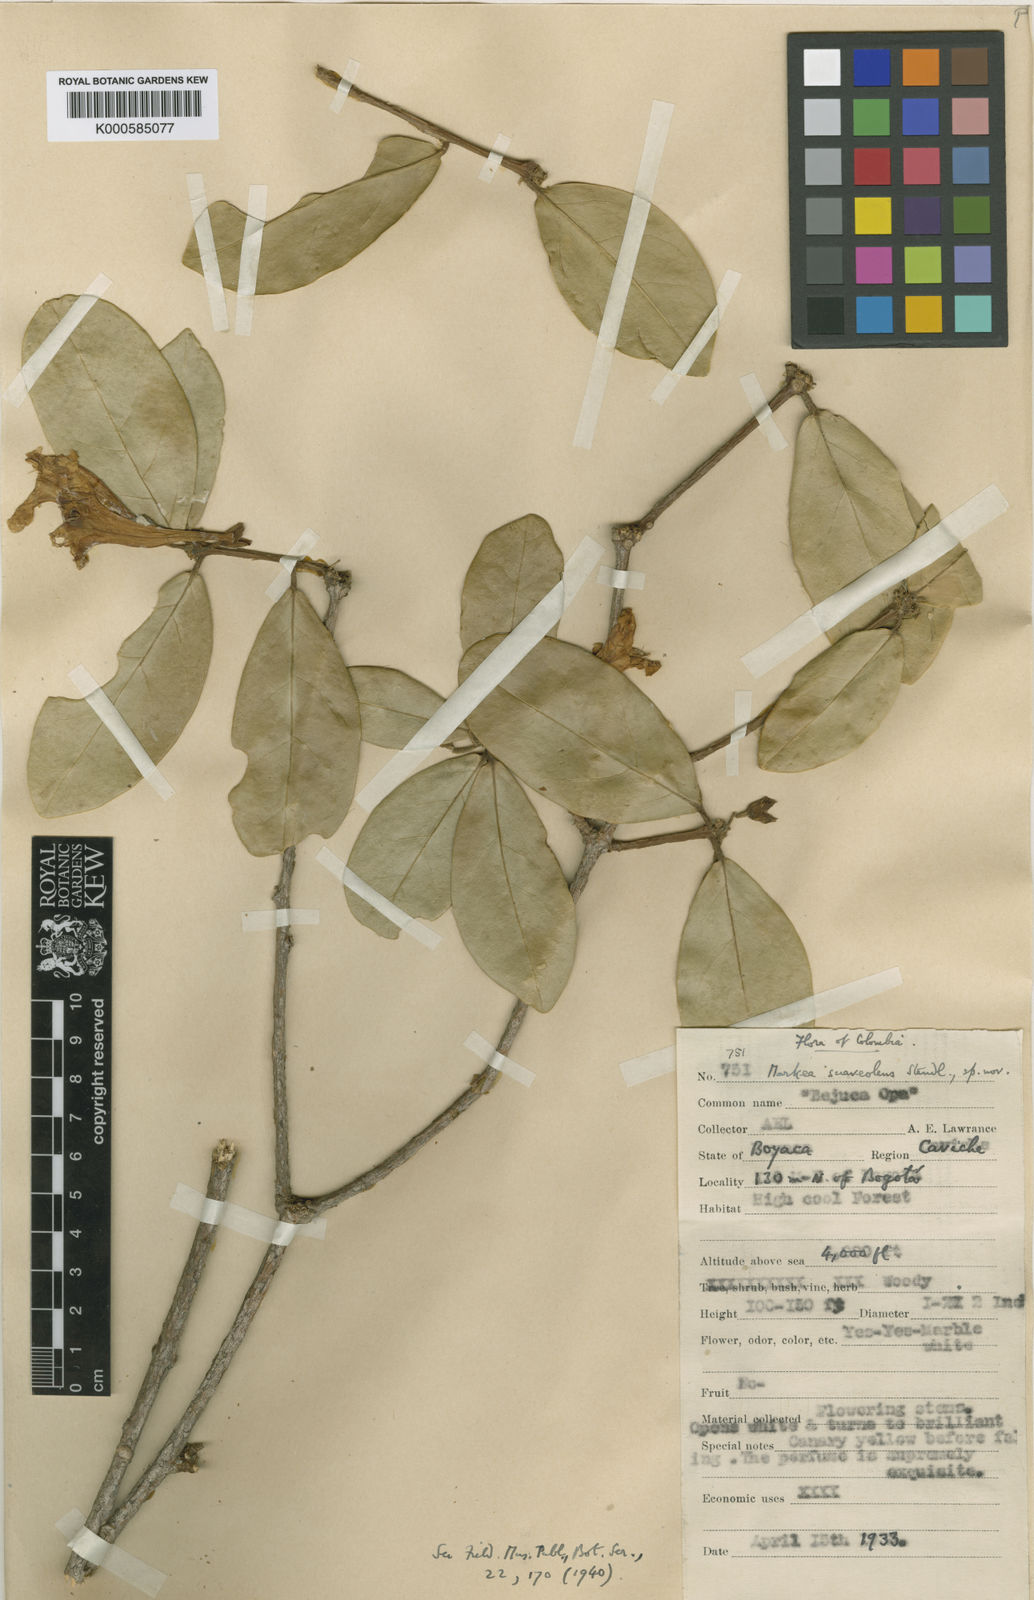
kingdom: Plantae
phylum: Tracheophyta
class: Magnoliopsida
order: Solanales
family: Solanaceae
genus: Schultesianthus
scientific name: Schultesianthus megalandrus
